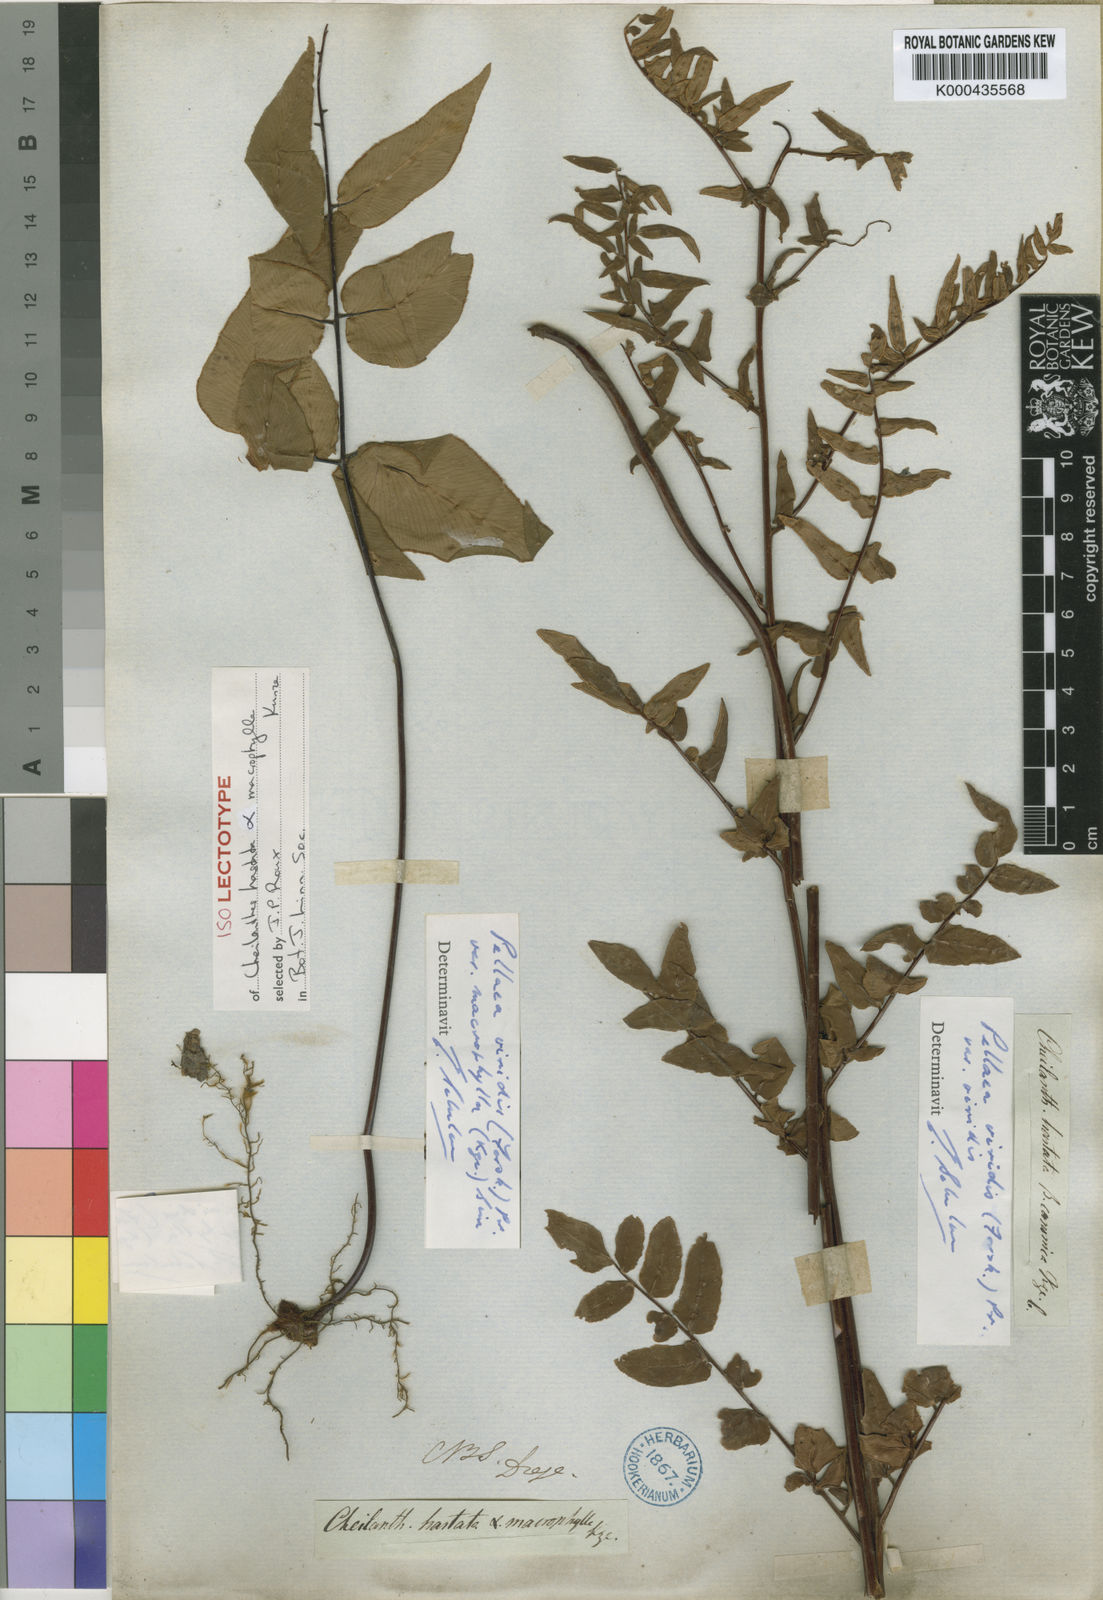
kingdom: Plantae
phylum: Tracheophyta
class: Polypodiopsida
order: Polypodiales
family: Pteridaceae
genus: Cheilanthes
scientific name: Cheilanthes viridis
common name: Green cliffbrake
